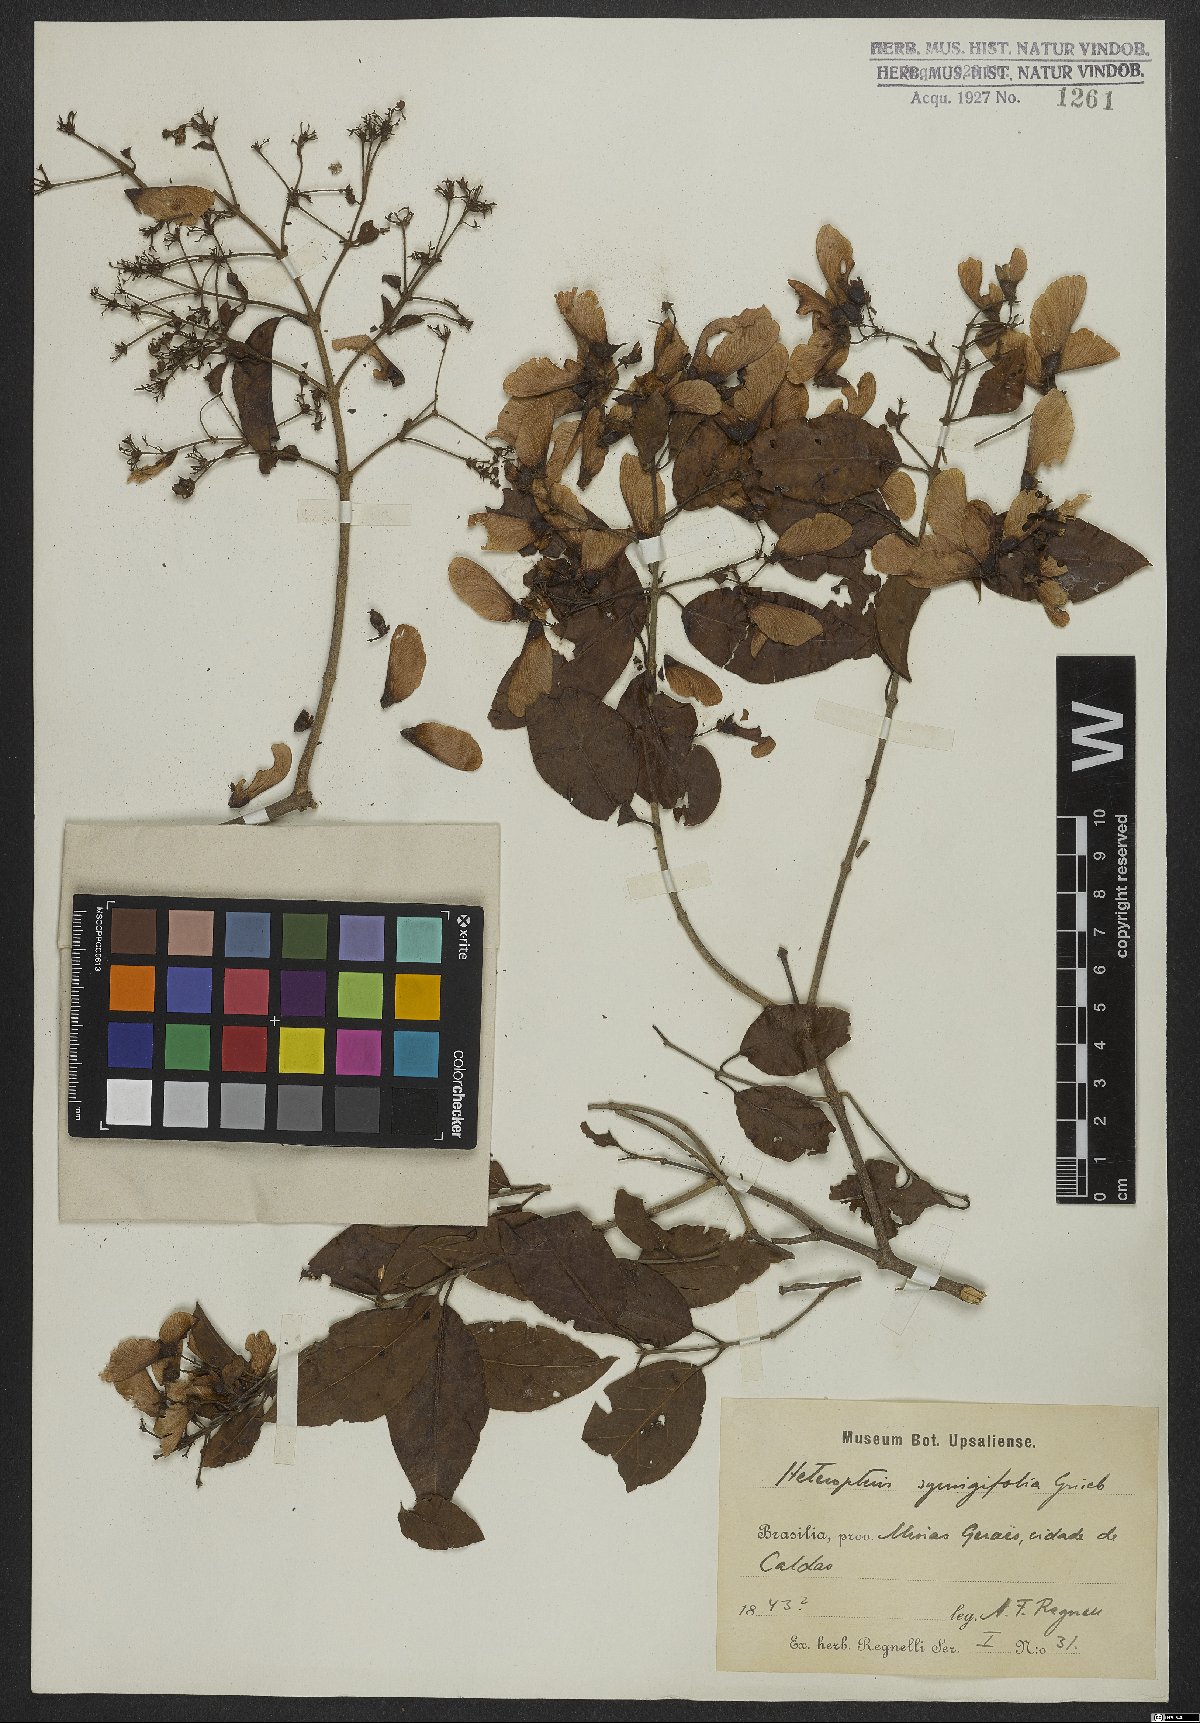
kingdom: Plantae
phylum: Tracheophyta
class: Magnoliopsida
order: Malpighiales
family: Malpighiaceae
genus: Heteropterys
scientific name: Heteropterys syringifolia
